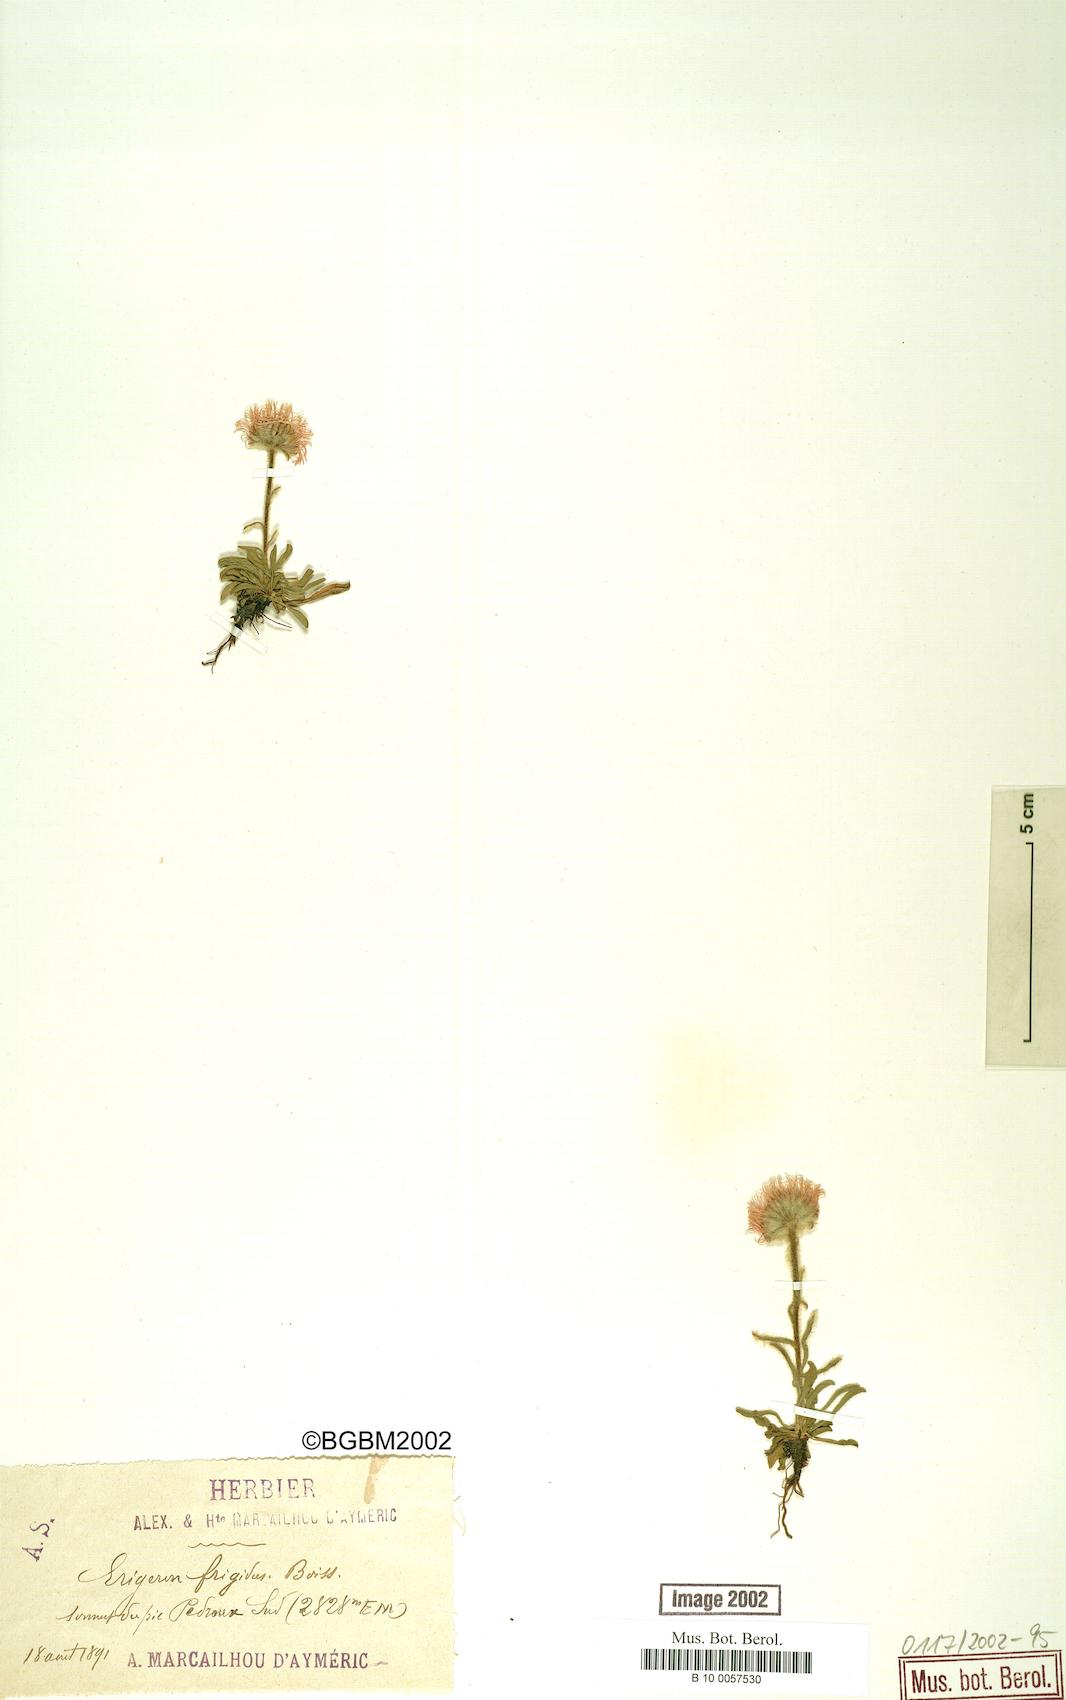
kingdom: Plantae
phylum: Tracheophyta
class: Magnoliopsida
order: Asterales
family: Asteraceae
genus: Erigeron
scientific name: Erigeron aragonensis
